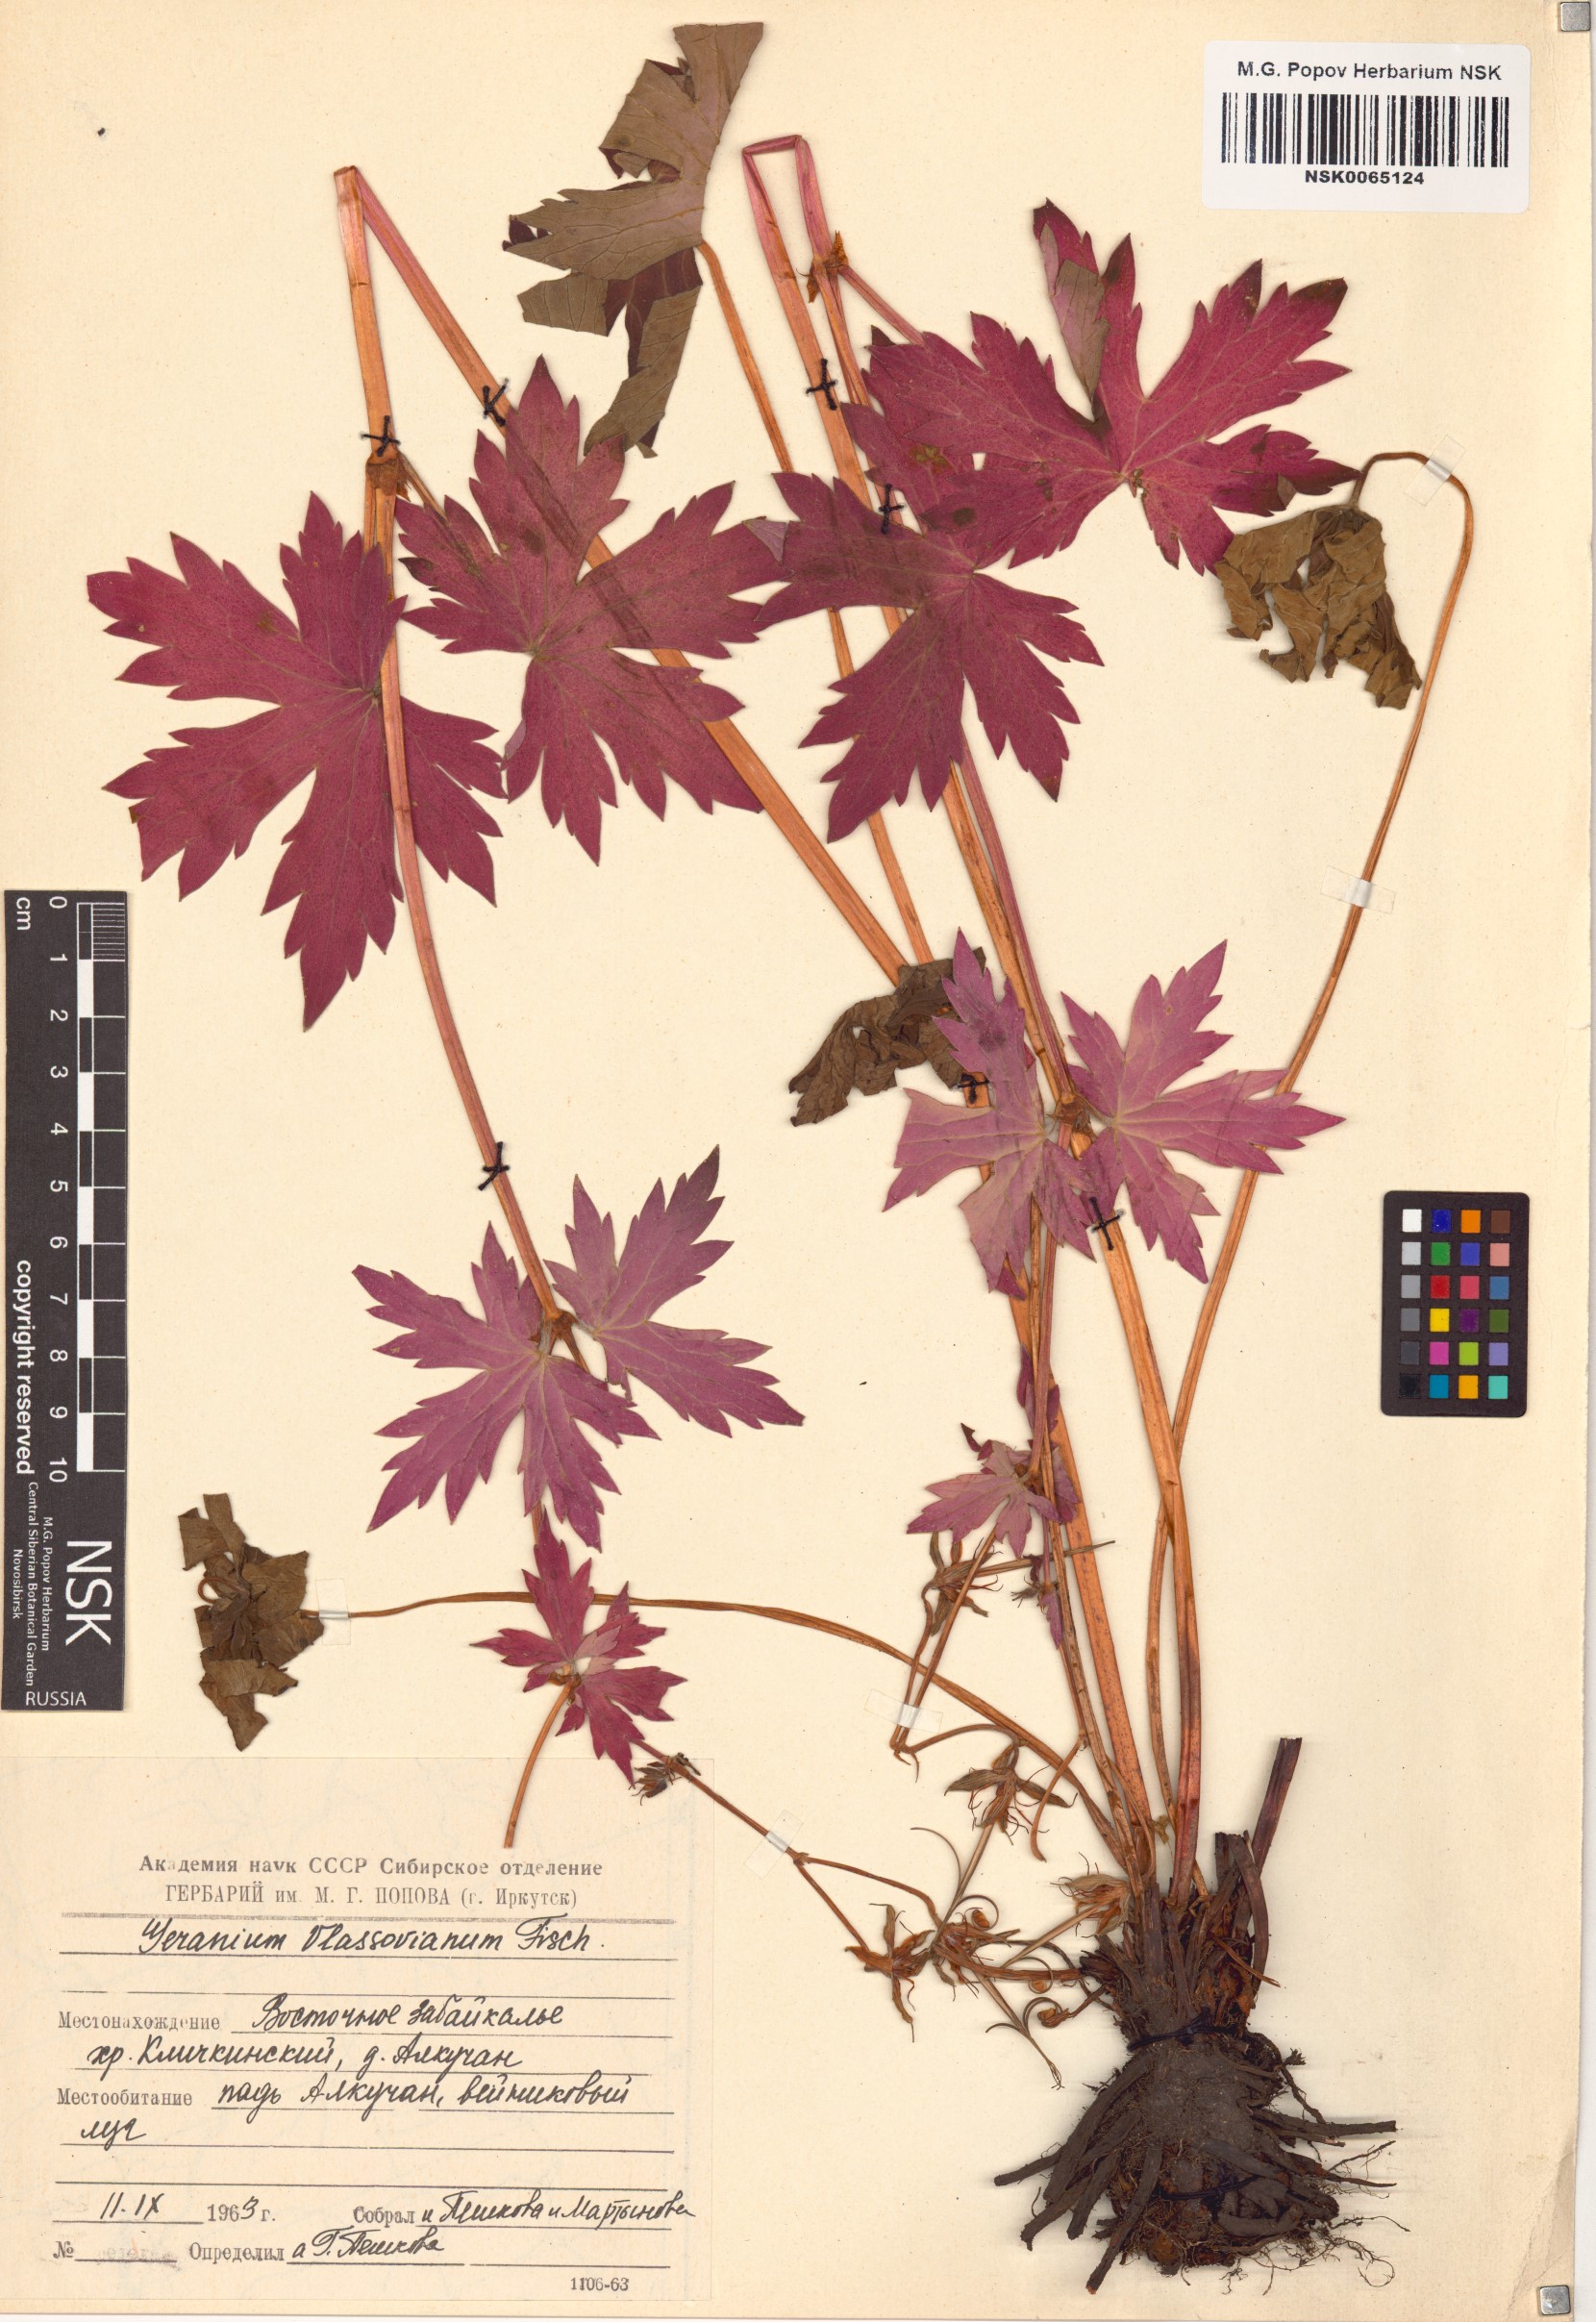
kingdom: Plantae
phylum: Tracheophyta
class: Magnoliopsida
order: Geraniales
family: Geraniaceae
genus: Geranium
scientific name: Geranium wlassovianum
